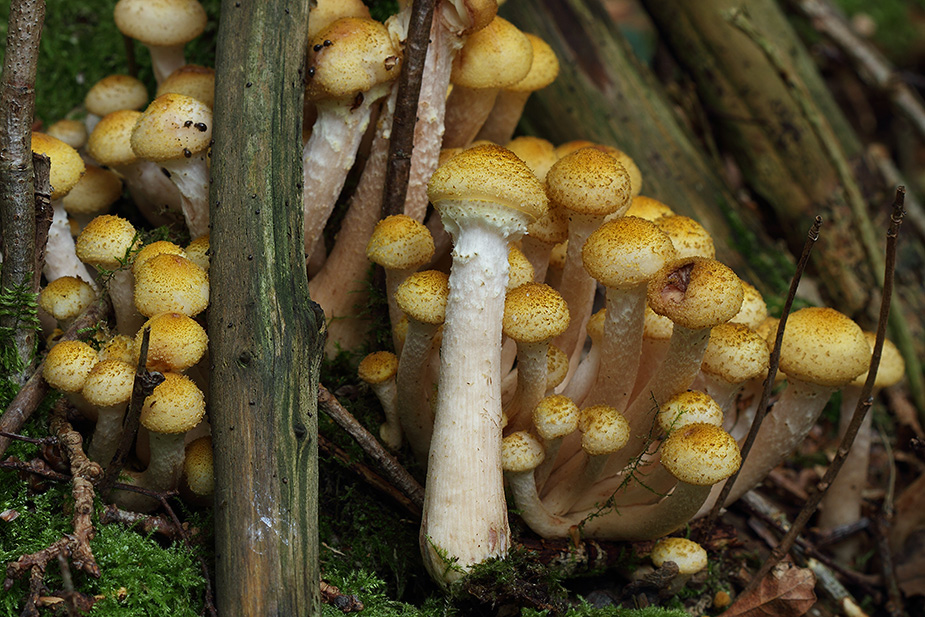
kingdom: Fungi
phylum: Basidiomycota
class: Agaricomycetes
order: Agaricales
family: Physalacriaceae
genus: Armillaria
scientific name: Armillaria
